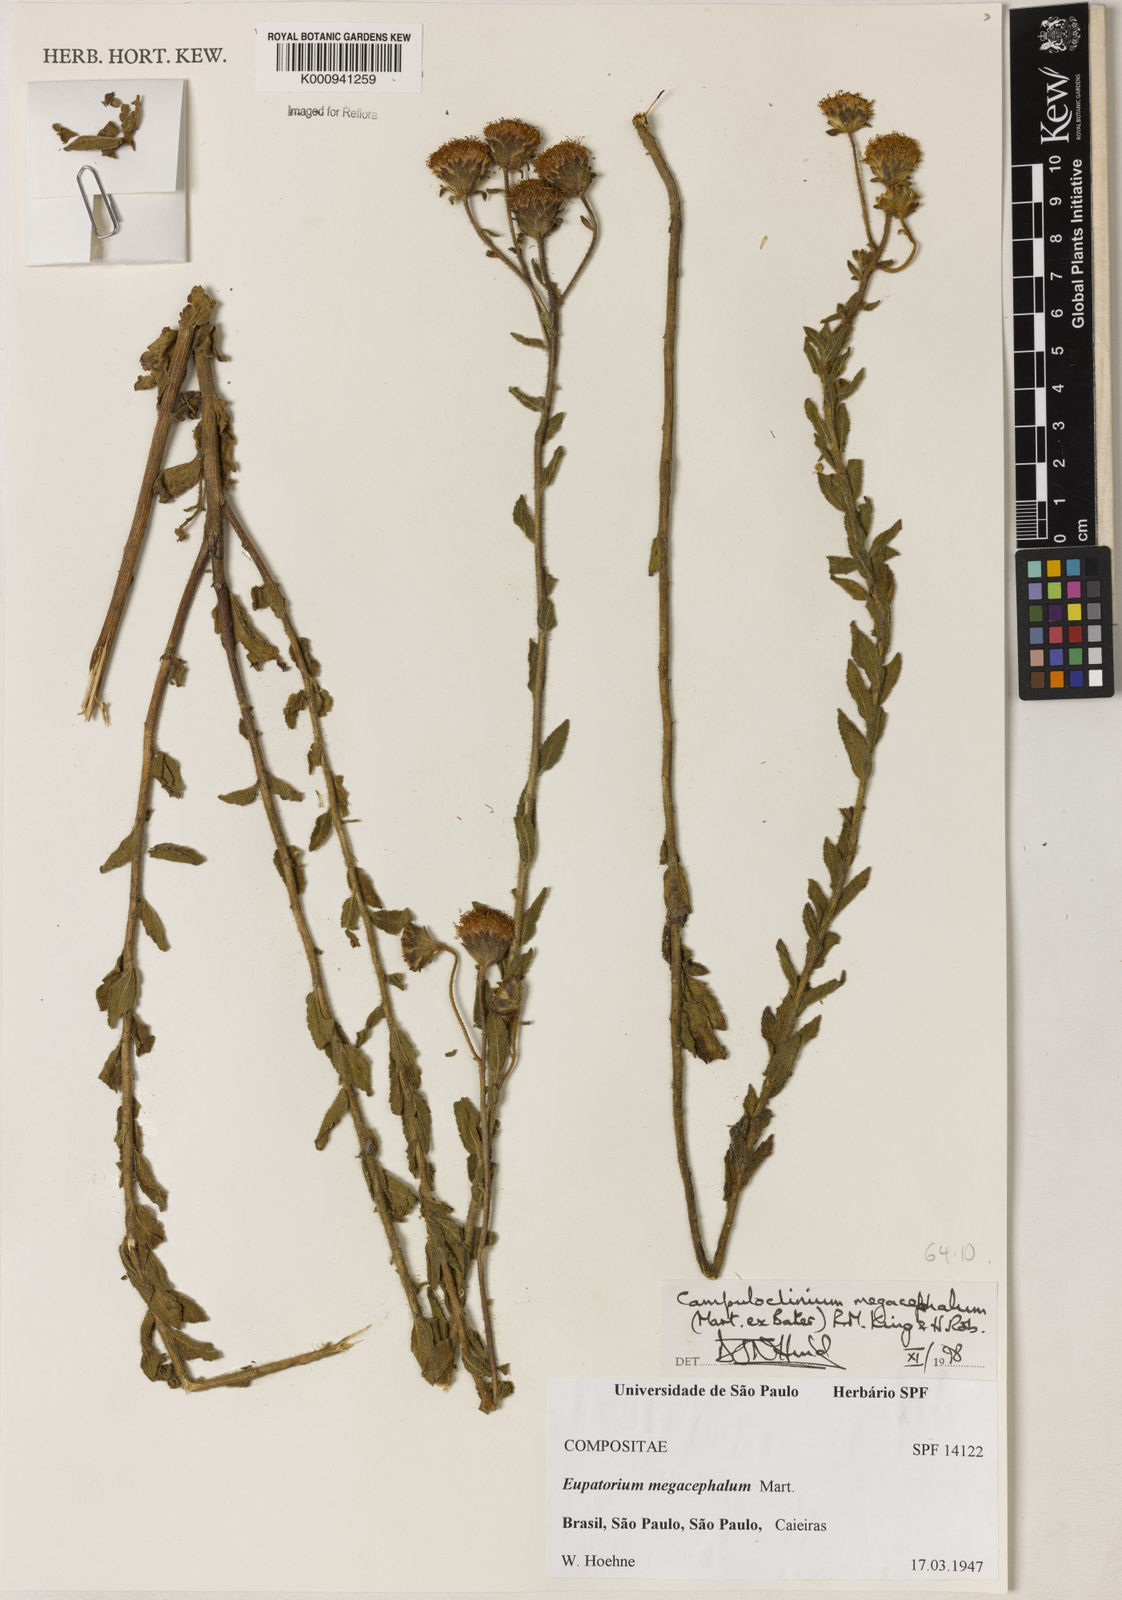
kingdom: Plantae
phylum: Tracheophyta
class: Magnoliopsida
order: Asterales
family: Asteraceae
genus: Campuloclinium
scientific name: Campuloclinium megacephalum
